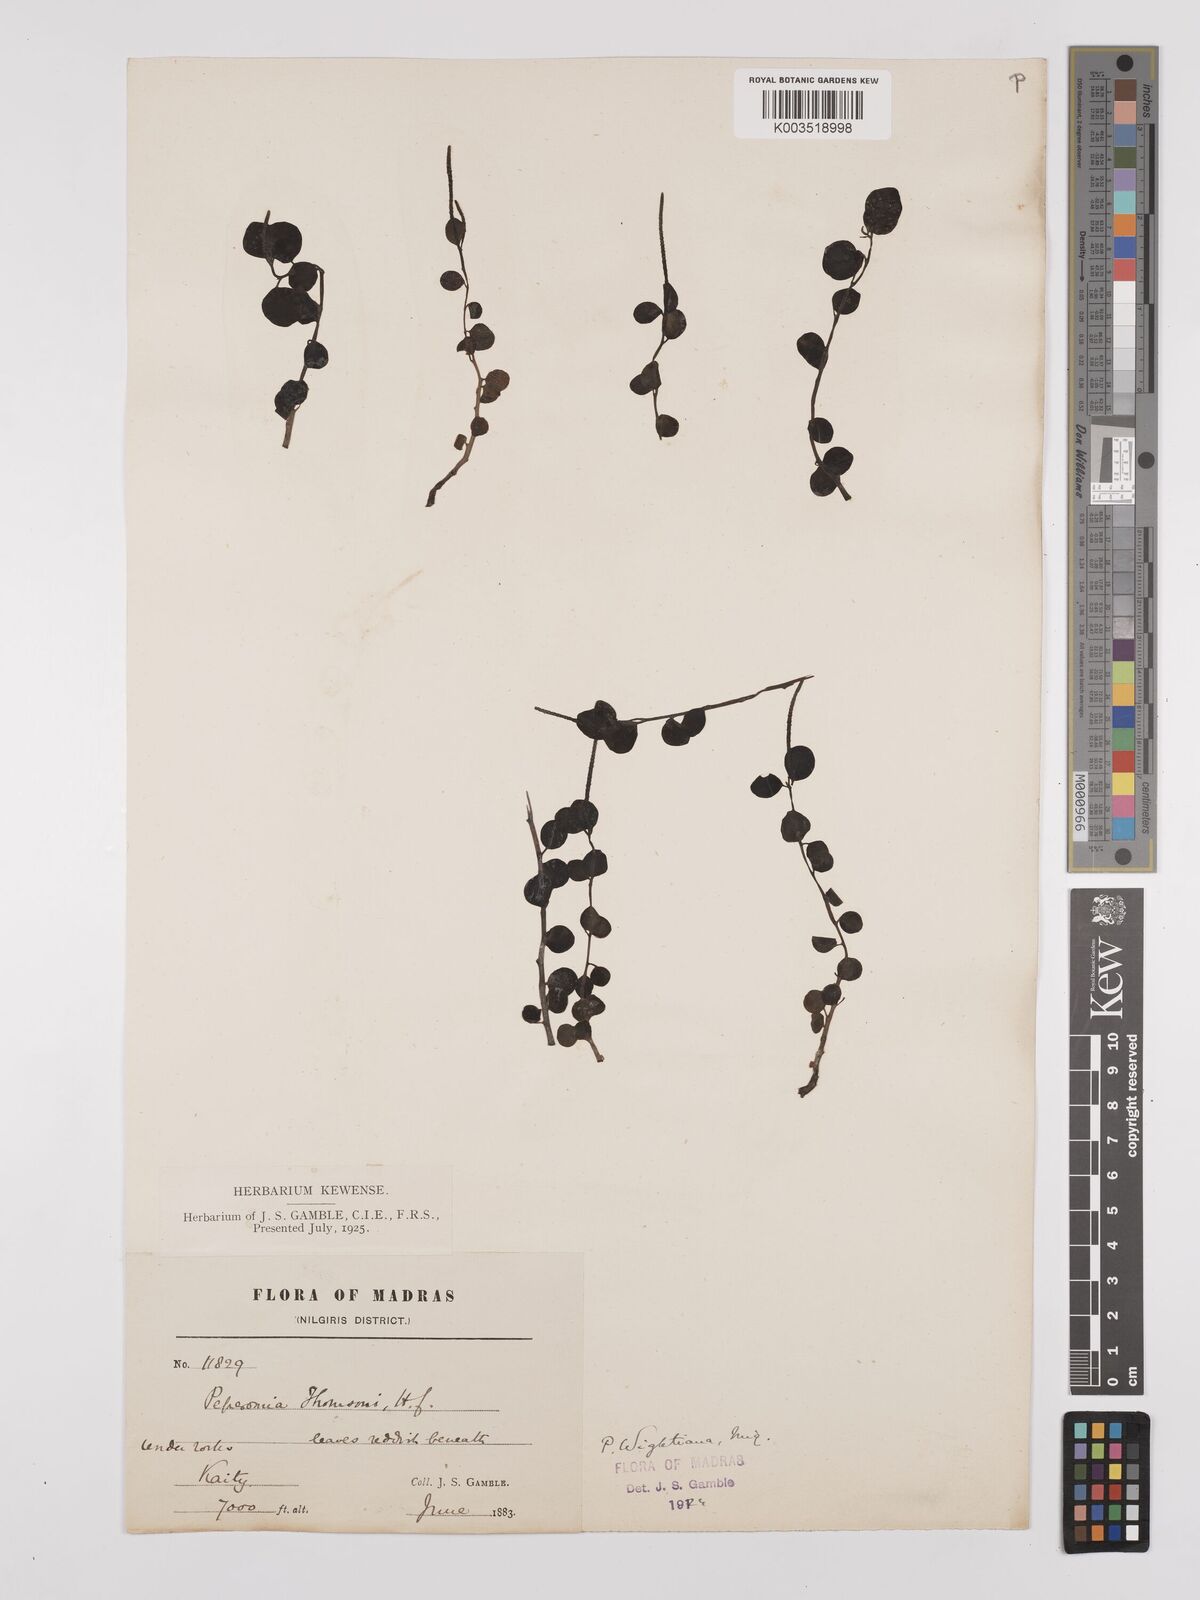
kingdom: Plantae
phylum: Tracheophyta
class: Magnoliopsida
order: Piperales
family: Piperaceae
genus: Peperomia
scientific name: Peperomia wightiana
